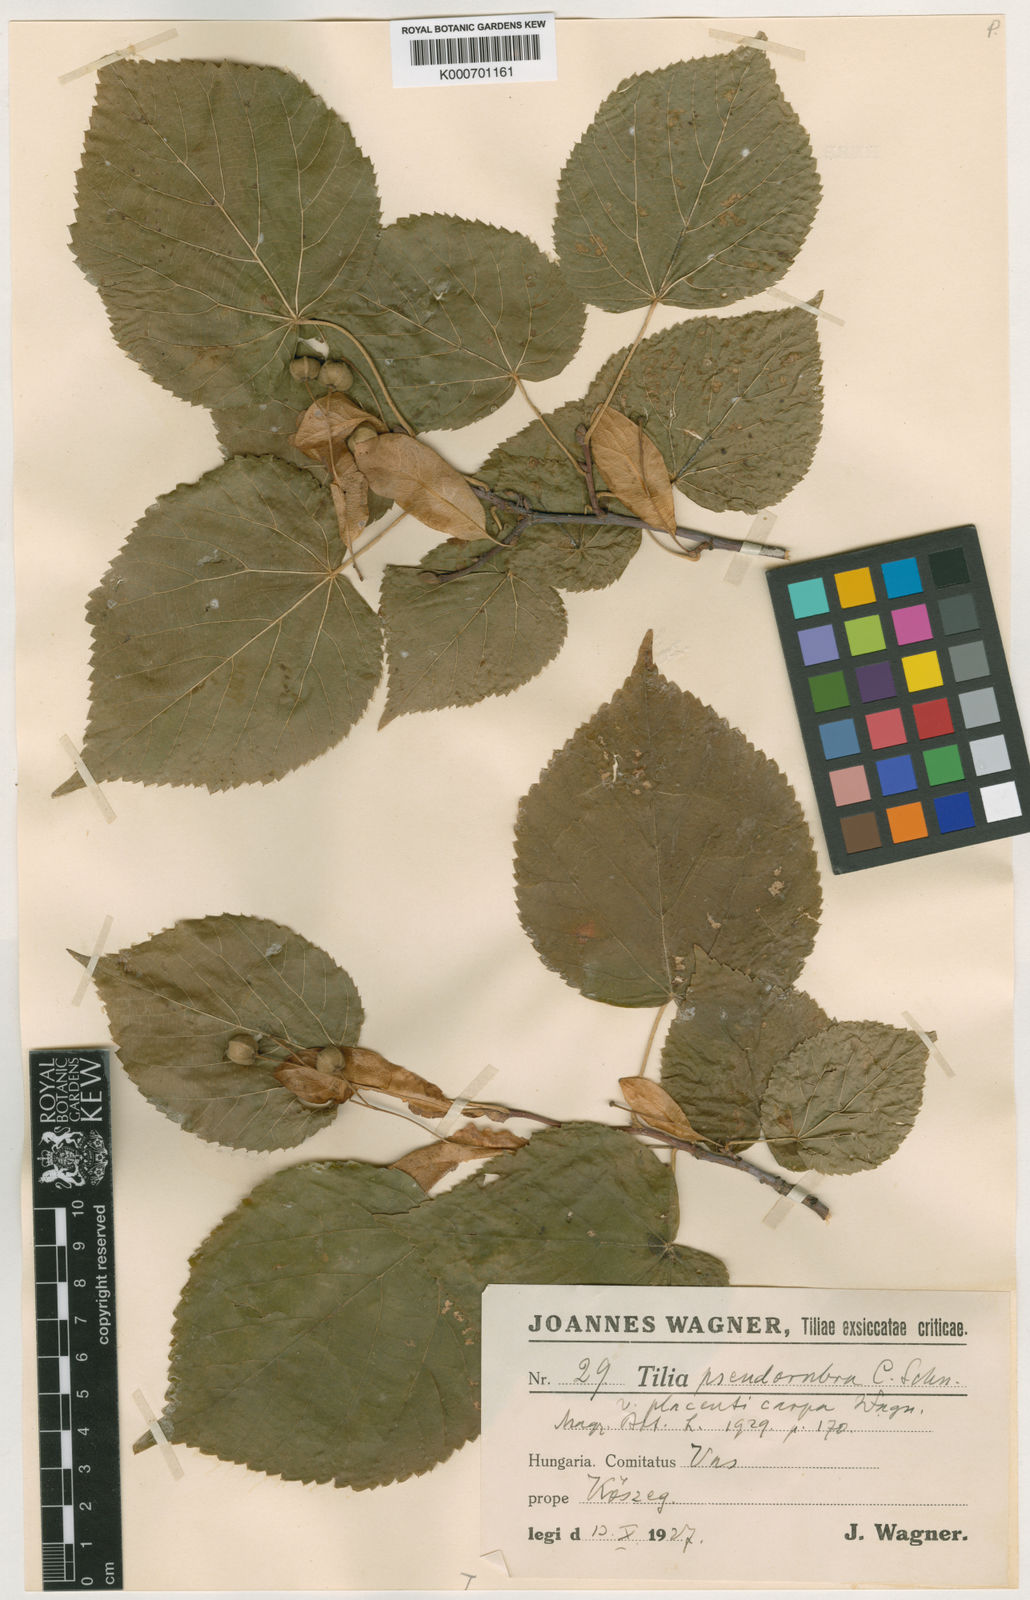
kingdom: Plantae
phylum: Tracheophyta
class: Magnoliopsida
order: Malvales
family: Malvaceae
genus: Tilia
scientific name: Tilia
